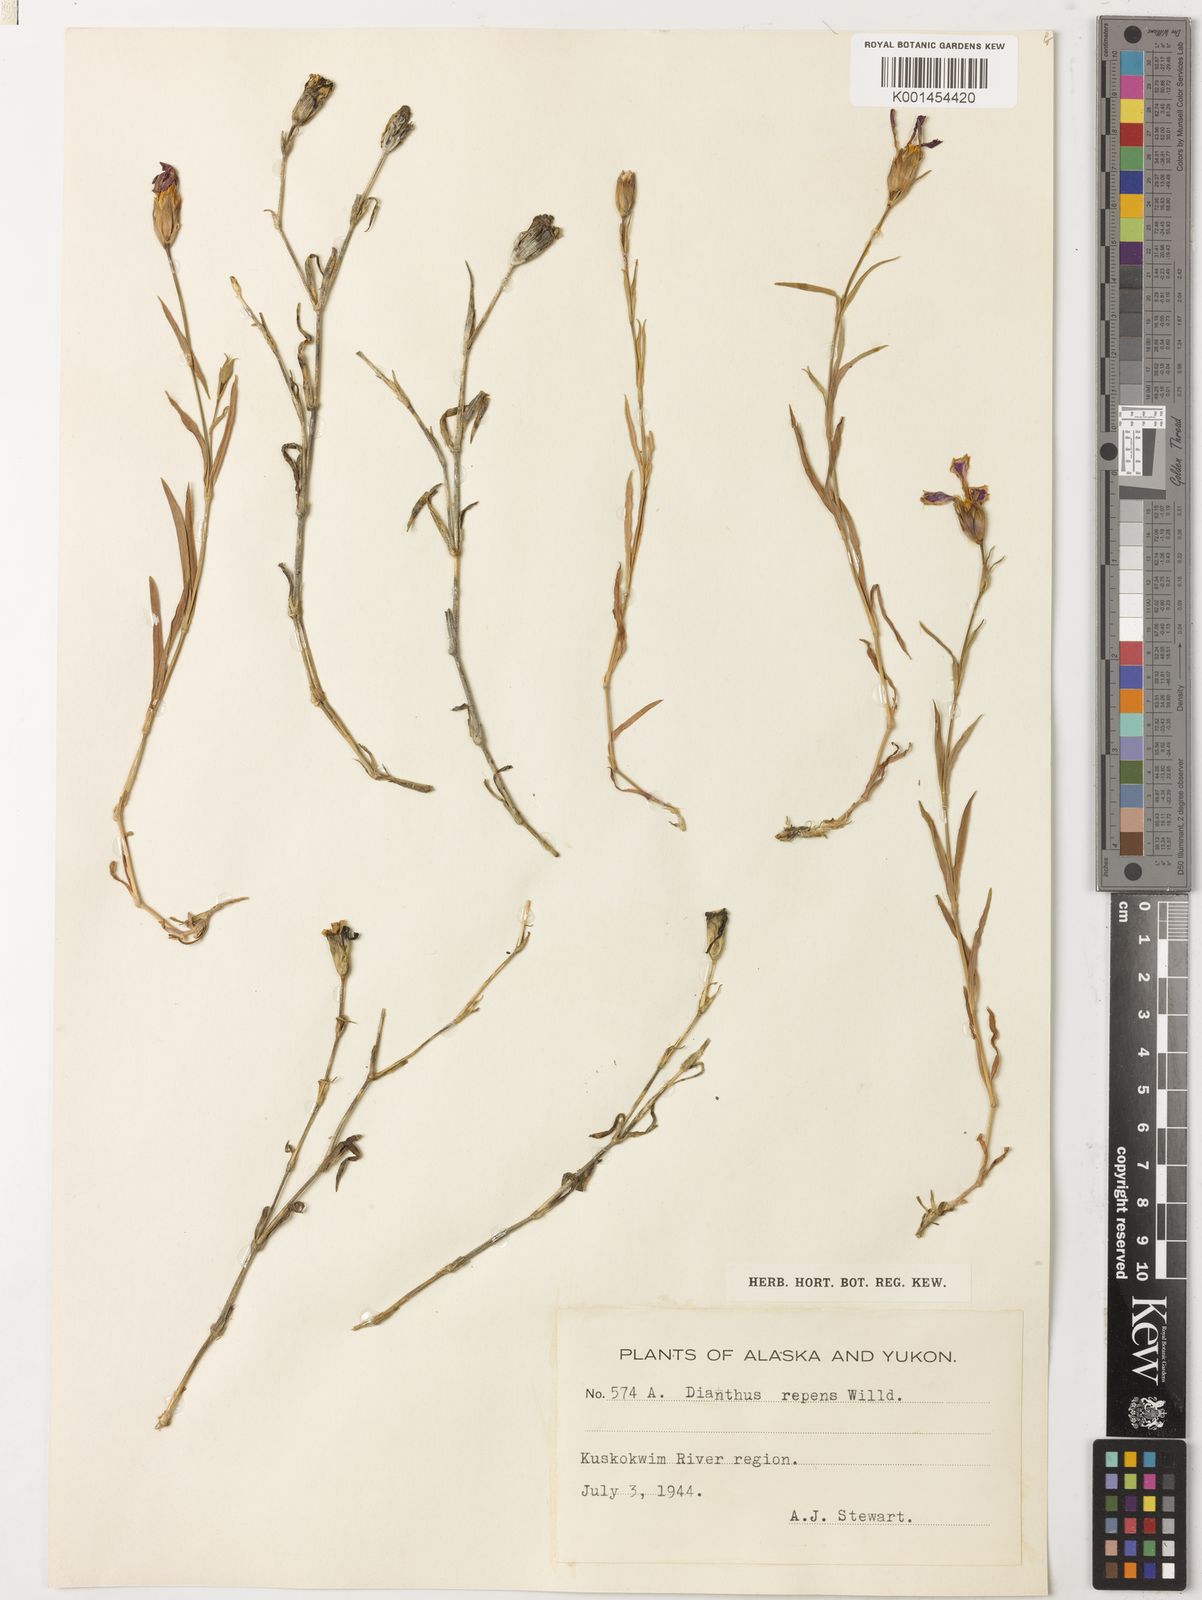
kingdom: Plantae
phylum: Tracheophyta
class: Magnoliopsida
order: Caryophyllales
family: Caryophyllaceae
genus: Dianthus
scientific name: Dianthus repens
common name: Northern pink
